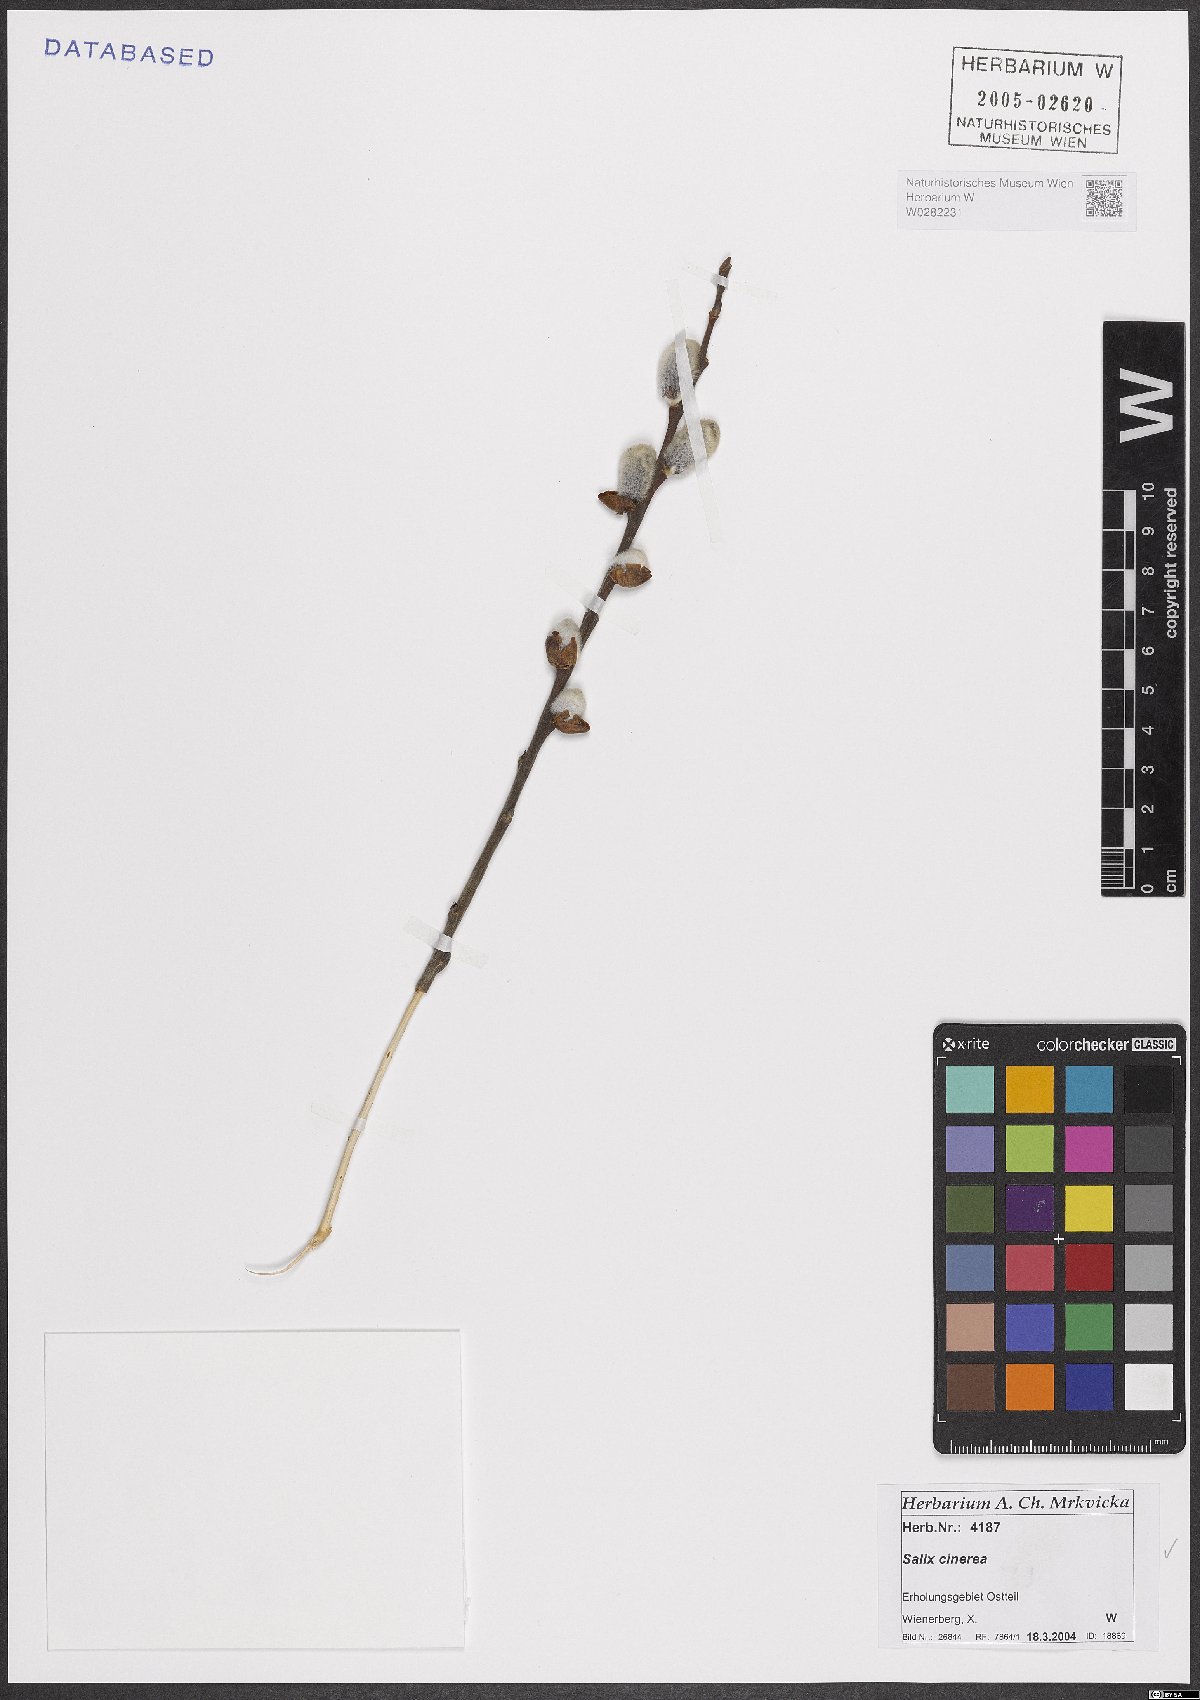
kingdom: Plantae
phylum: Tracheophyta
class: Magnoliopsida
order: Malpighiales
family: Salicaceae
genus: Salix
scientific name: Salix cinerea
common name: Common sallow
